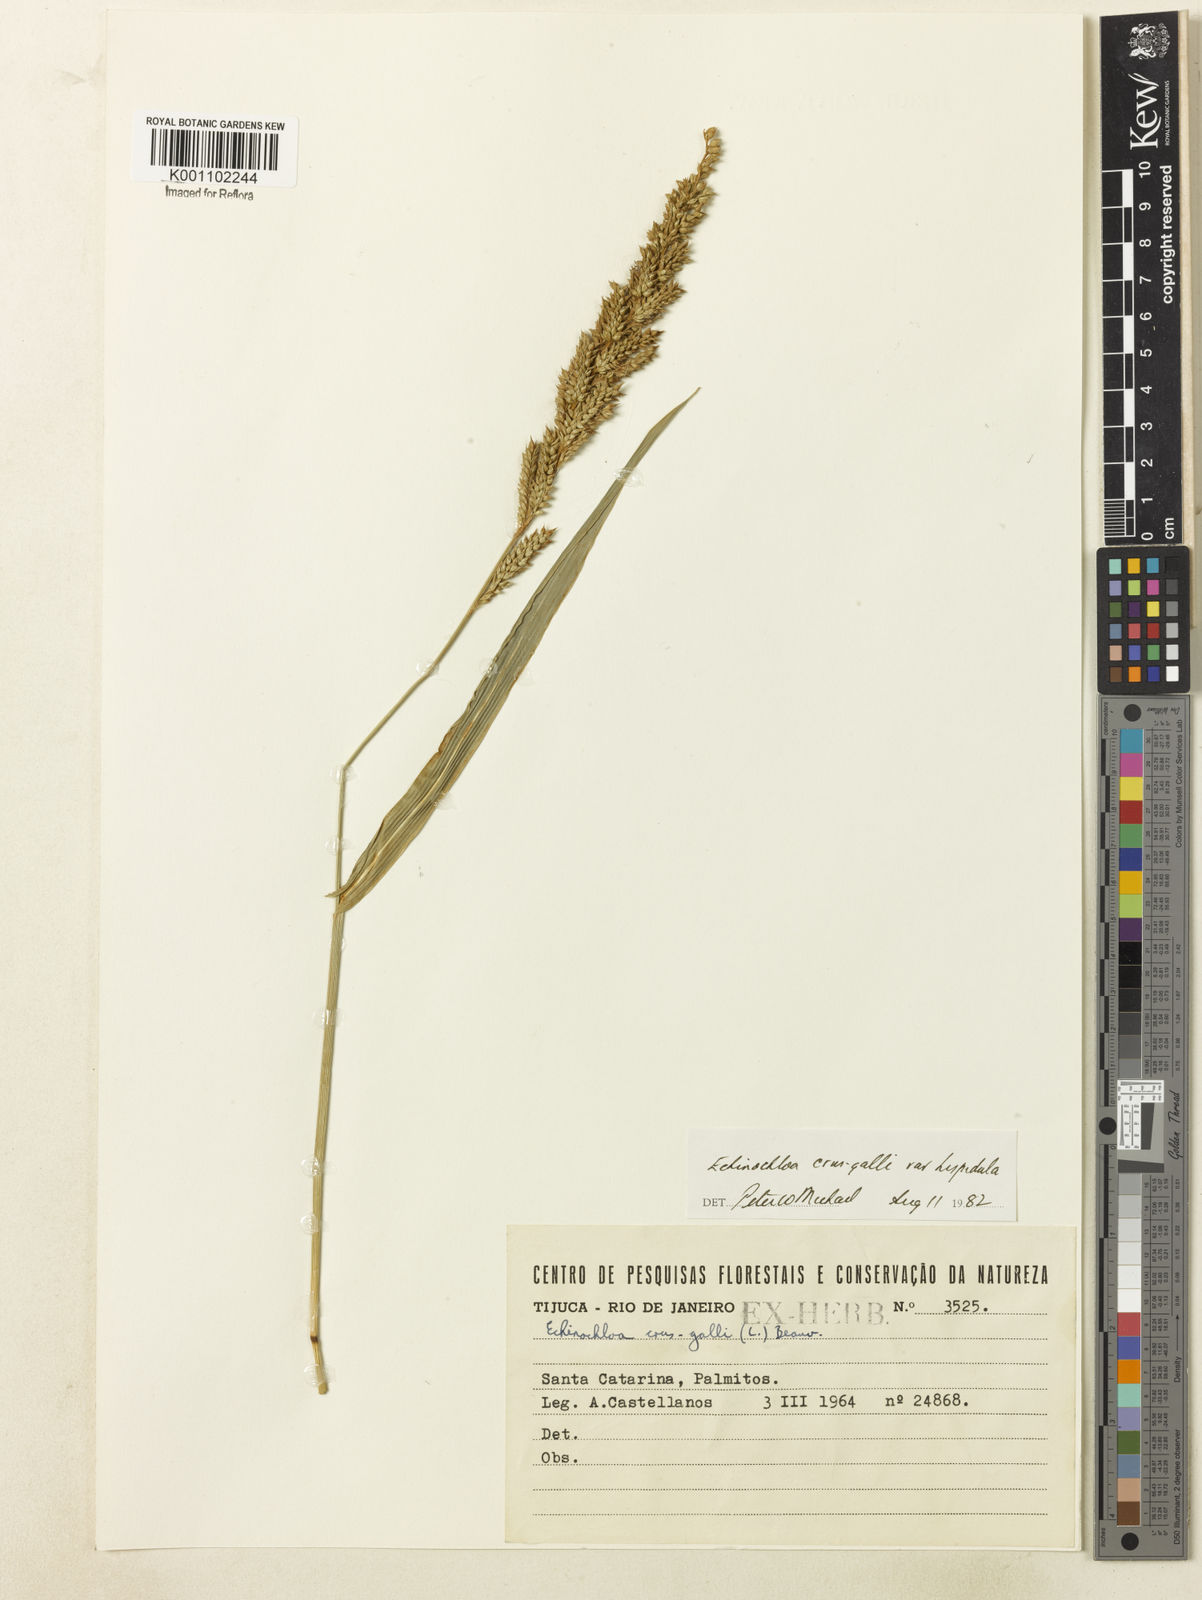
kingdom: Plantae
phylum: Tracheophyta
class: Liliopsida
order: Poales
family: Poaceae
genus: Echinochloa
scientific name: Echinochloa crus-galli
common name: Cockspur
